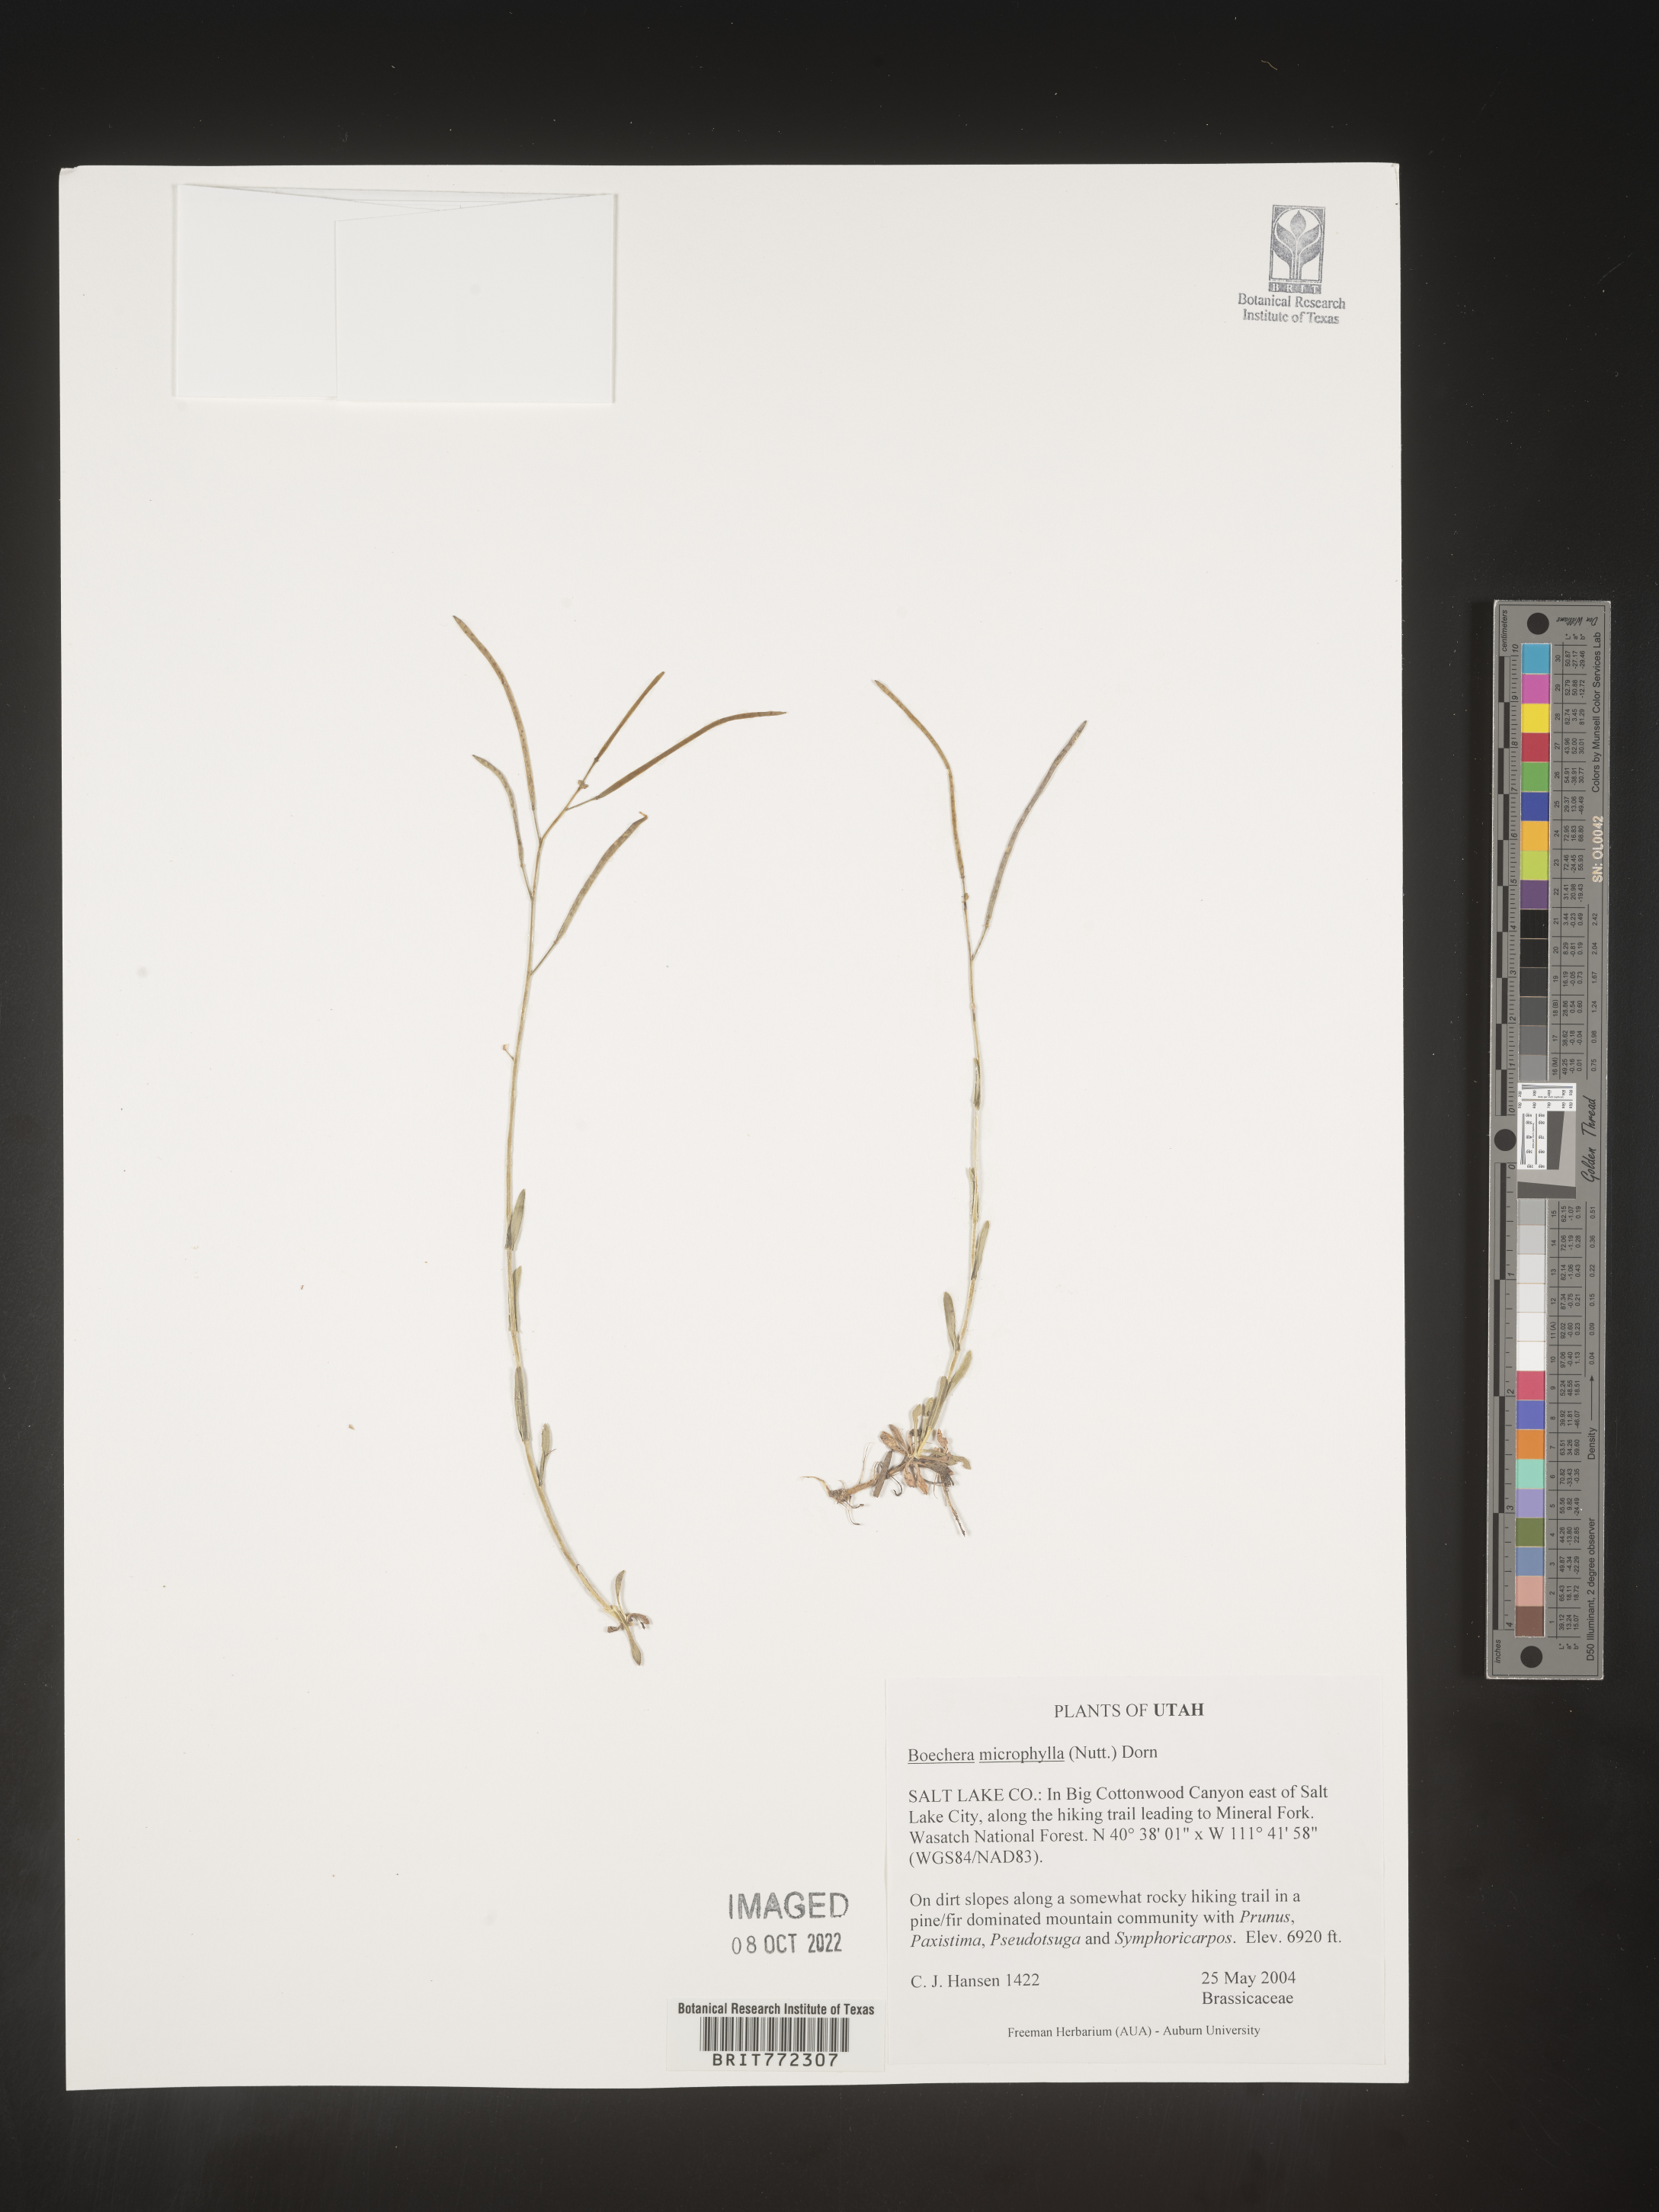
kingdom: Plantae
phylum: Tracheophyta
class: Magnoliopsida
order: Brassicales
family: Brassicaceae
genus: Boechera
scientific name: Boechera
